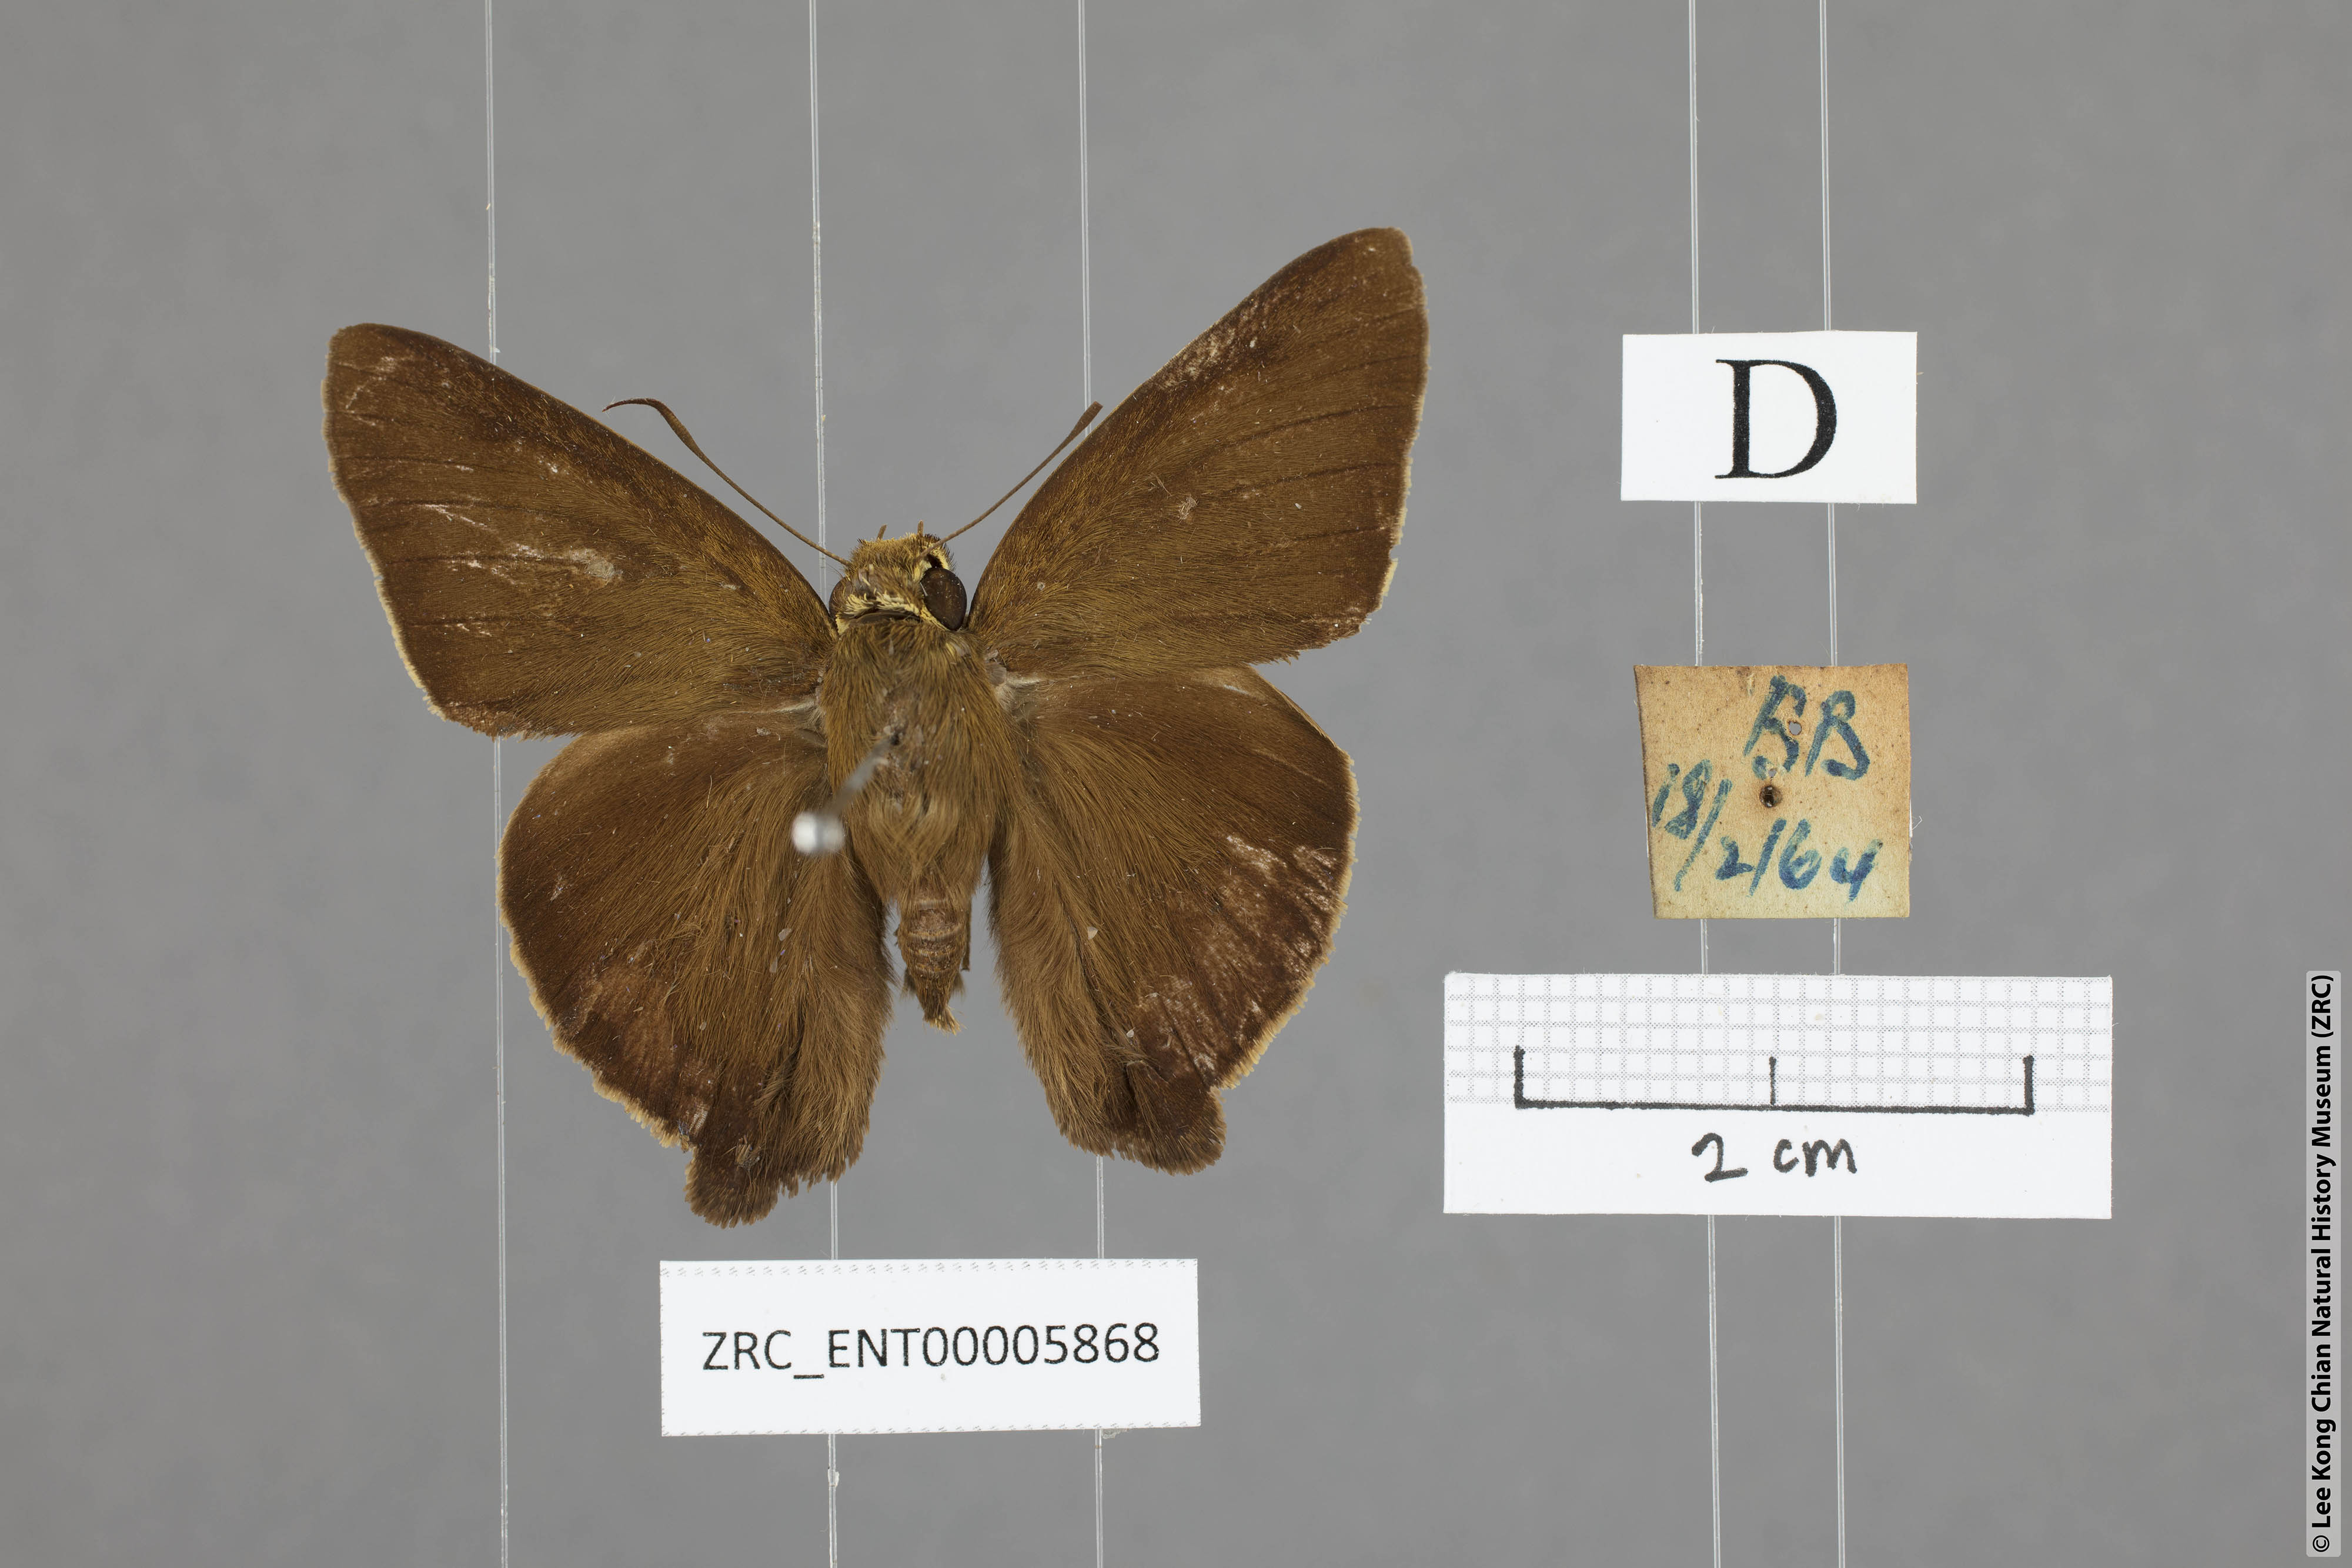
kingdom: Animalia
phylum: Arthropoda
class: Insecta
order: Lepidoptera
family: Hesperiidae
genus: Hasora
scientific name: Hasora badra
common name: Common awl
